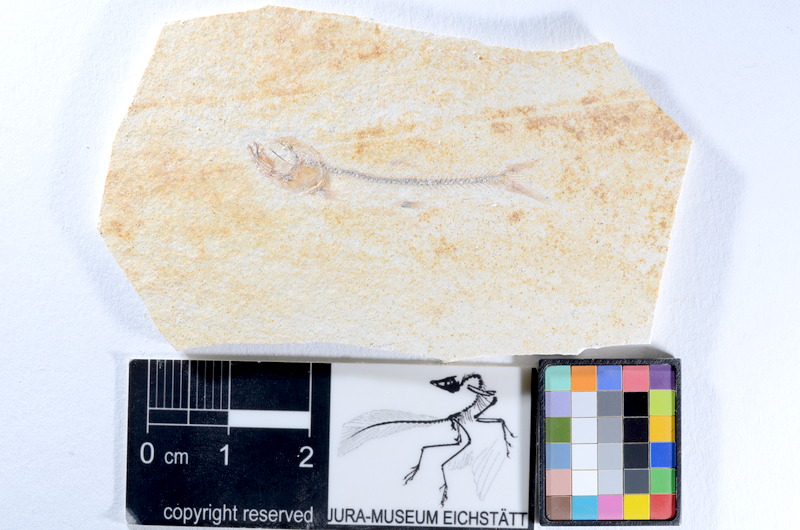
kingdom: Animalia
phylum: Chordata
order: Salmoniformes
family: Orthogonikleithridae
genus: Orthogonikleithrus
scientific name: Orthogonikleithrus hoelli
